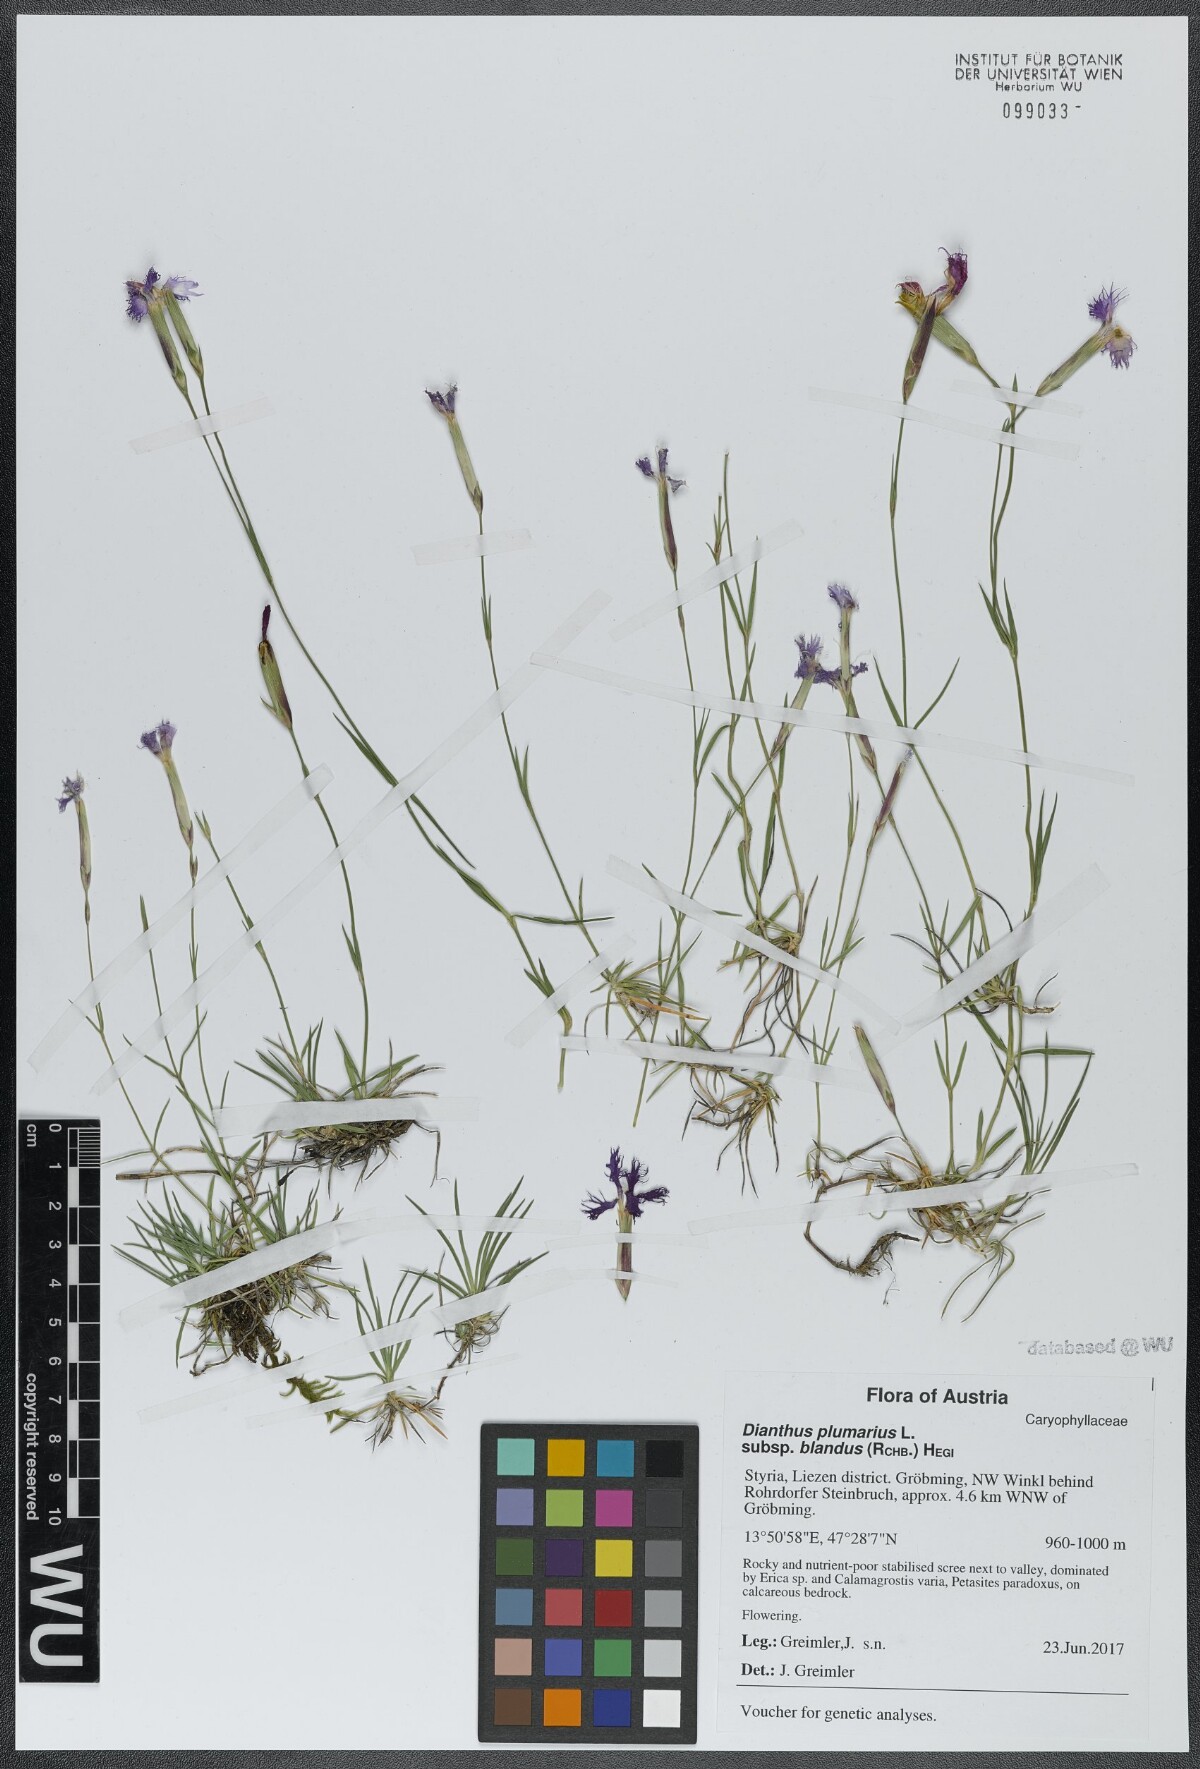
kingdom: Plantae
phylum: Tracheophyta
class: Magnoliopsida
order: Caryophyllales
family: Caryophyllaceae
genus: Dianthus
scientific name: Dianthus plumarius
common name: Pink
